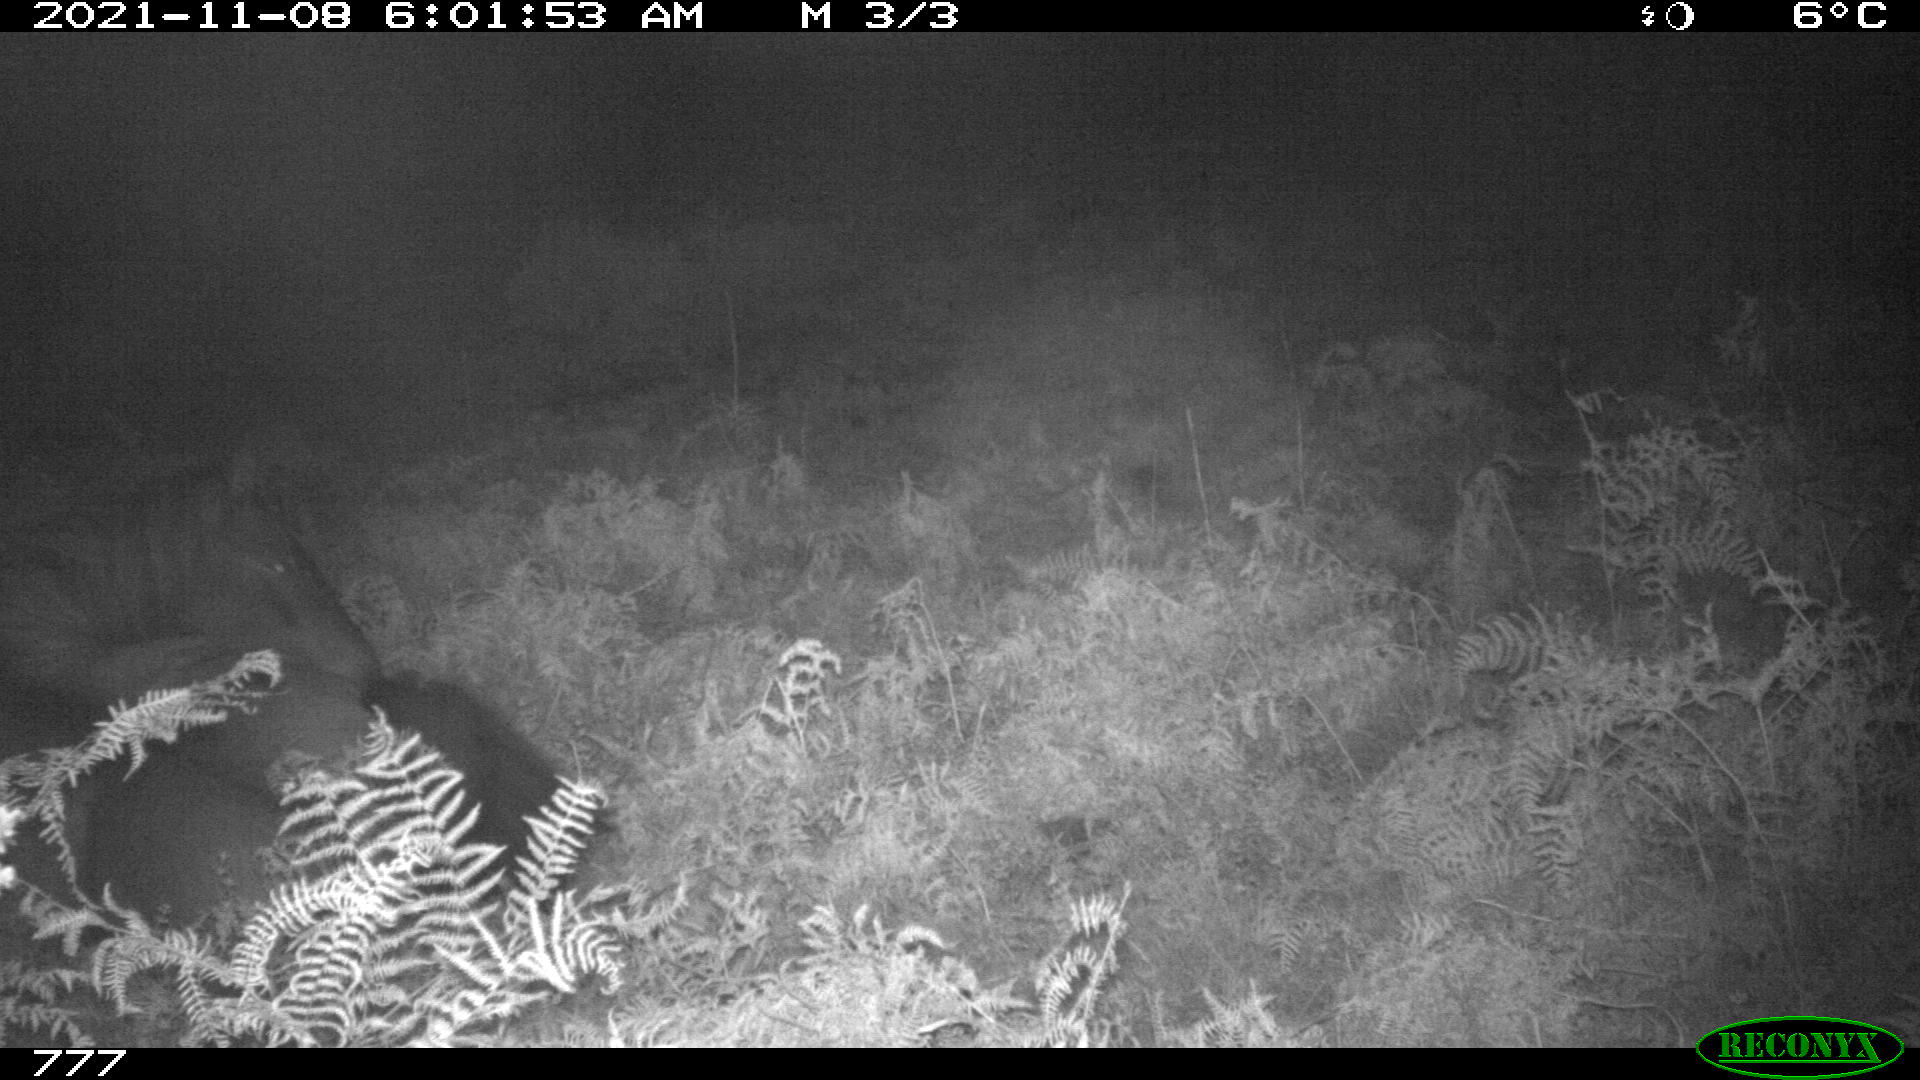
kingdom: Animalia
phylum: Chordata
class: Mammalia
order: Perissodactyla
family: Equidae
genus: Equus
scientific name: Equus caballus
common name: Horse
